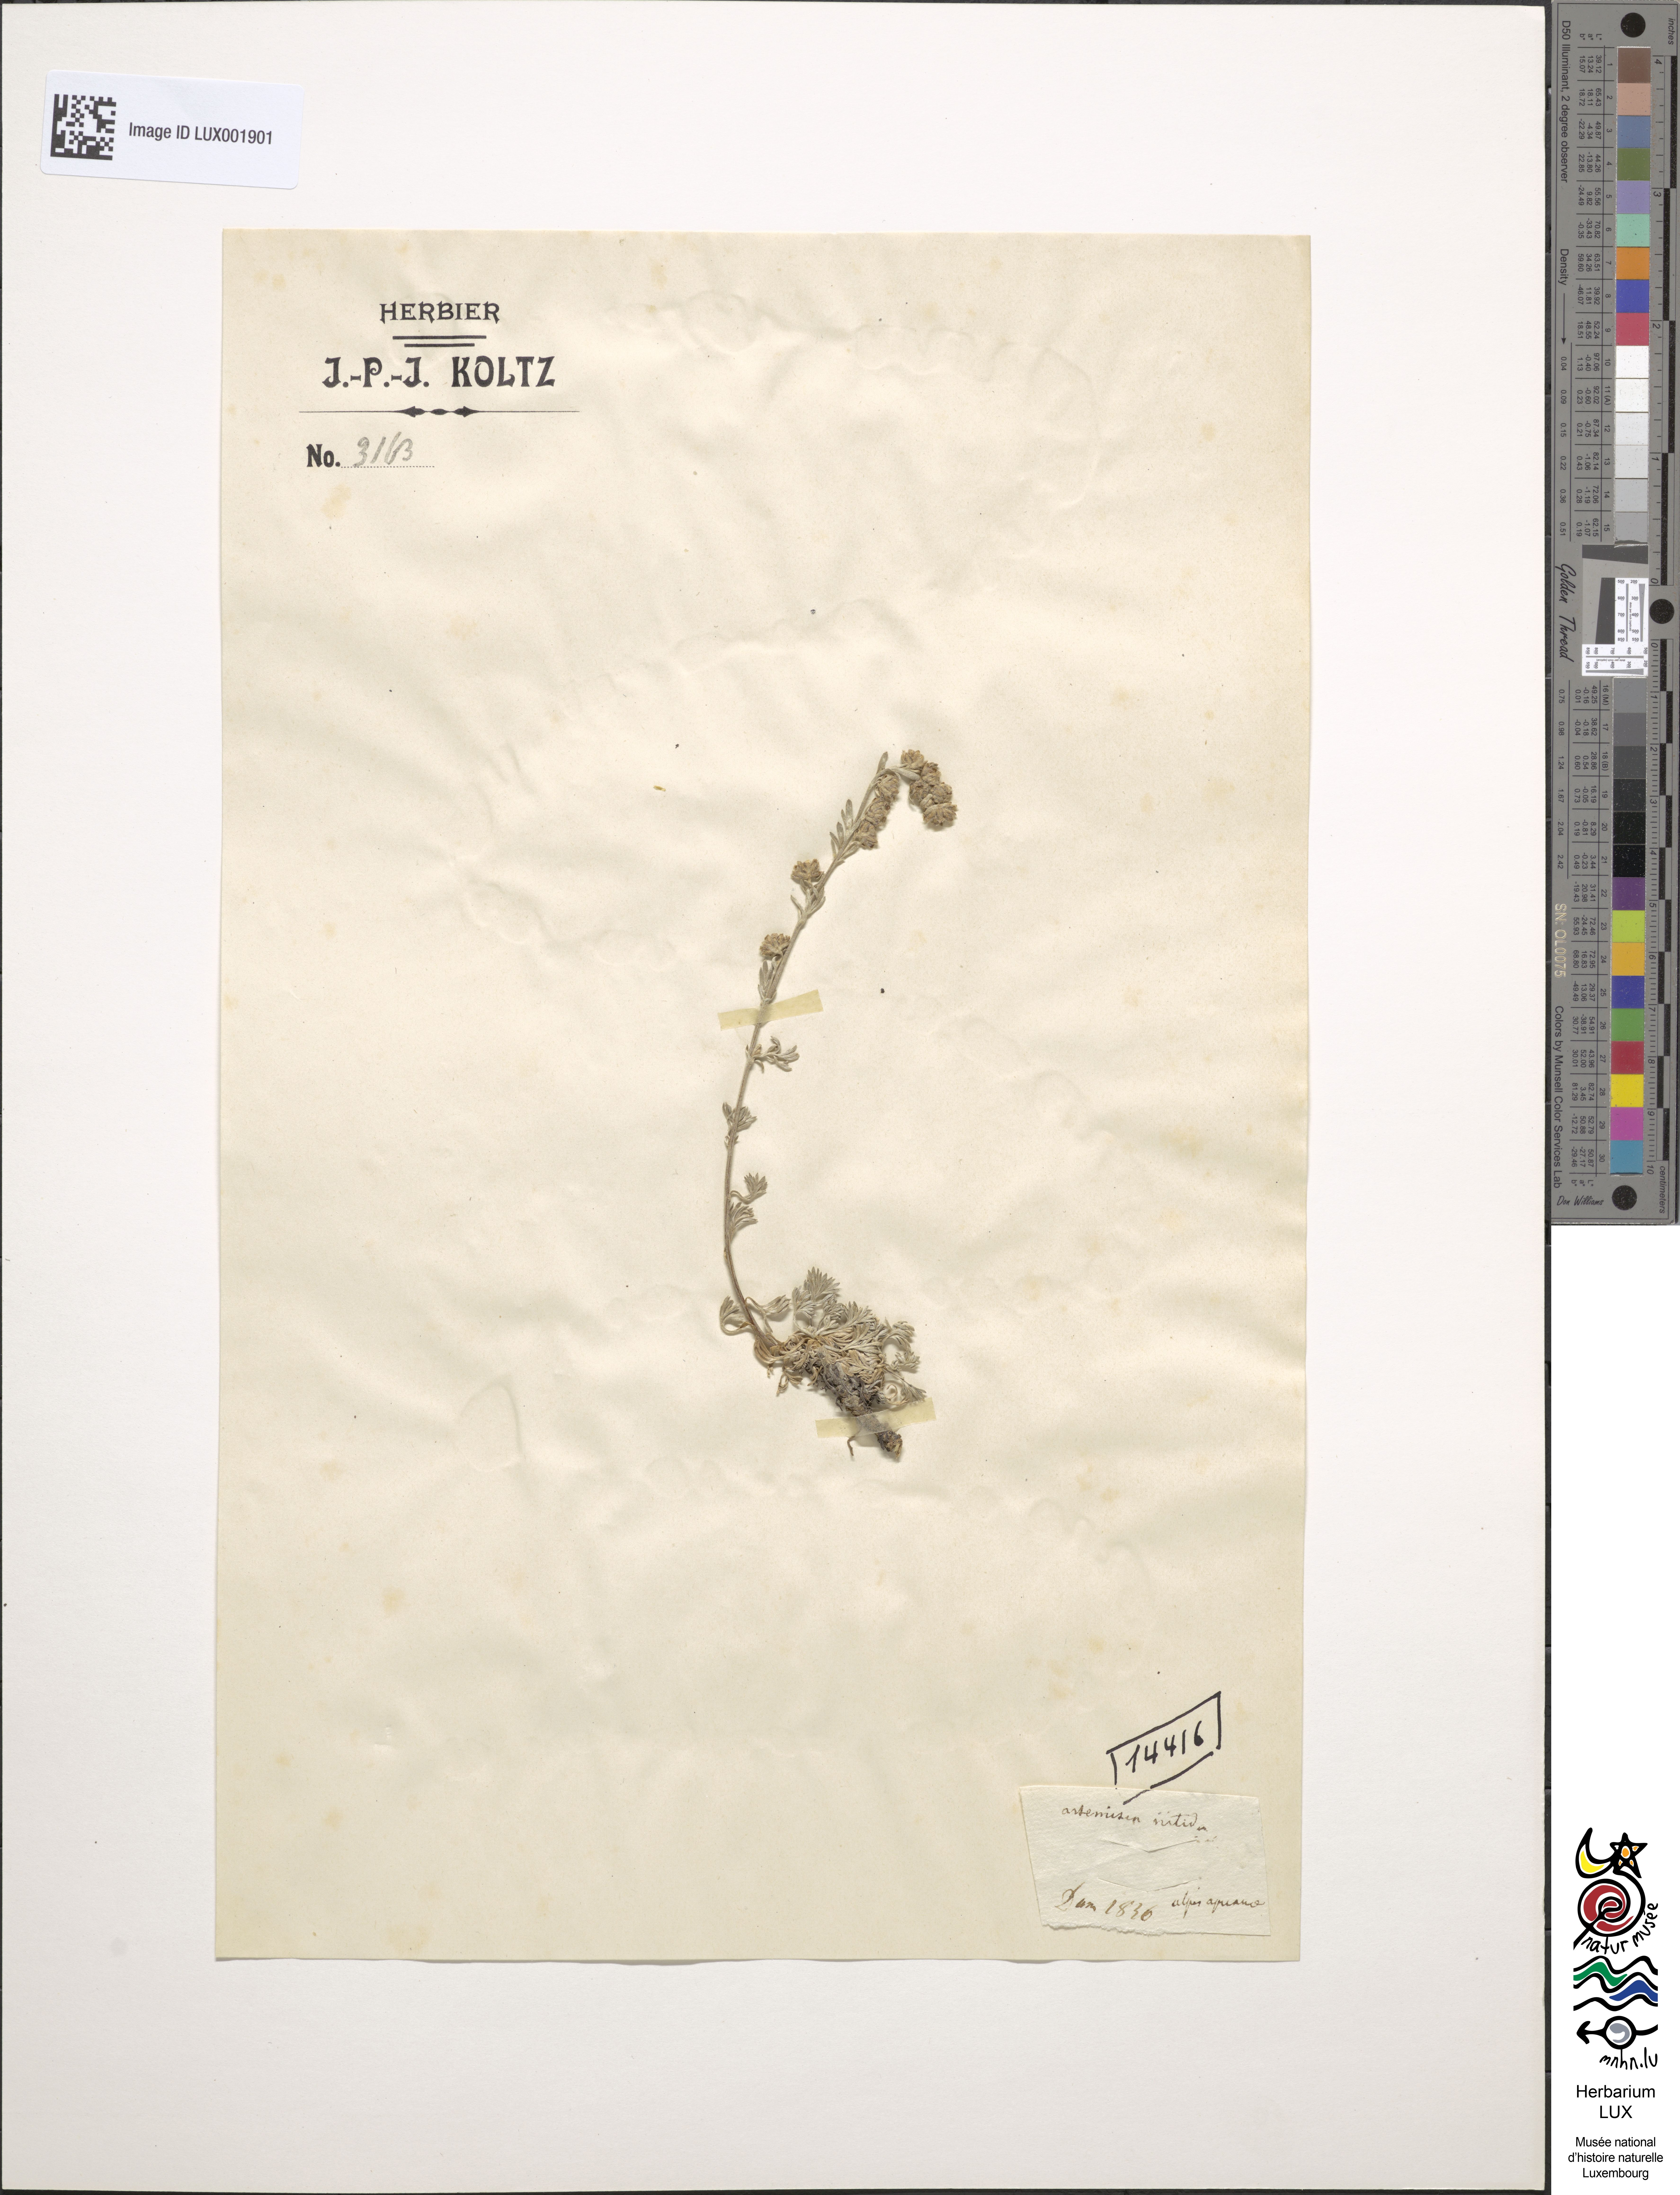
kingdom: Plantae
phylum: Tracheophyta
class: Magnoliopsida
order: Asterales
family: Asteraceae
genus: Artemisia
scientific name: Artemisia nitida
